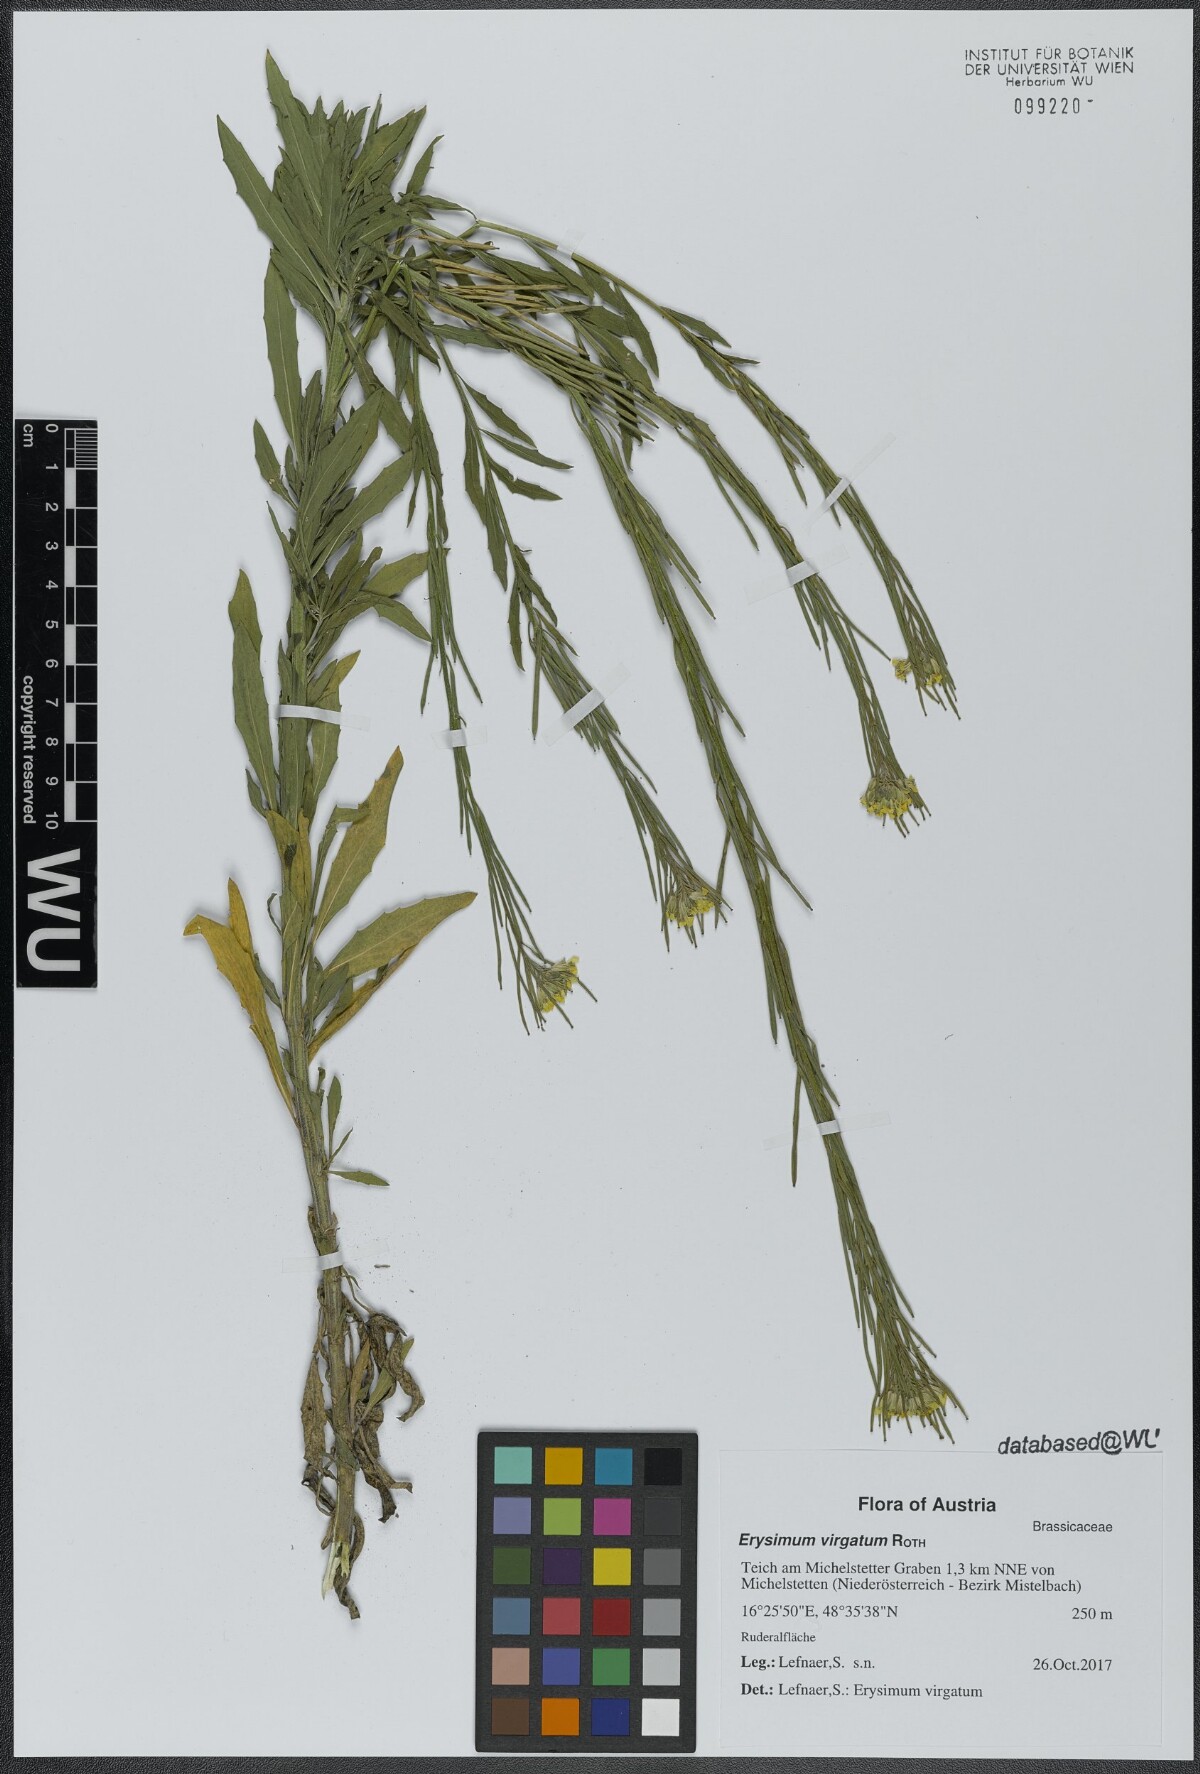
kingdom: Plantae
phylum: Tracheophyta
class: Magnoliopsida
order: Brassicales
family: Brassicaceae
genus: Erysimum
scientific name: Erysimum virgatum
